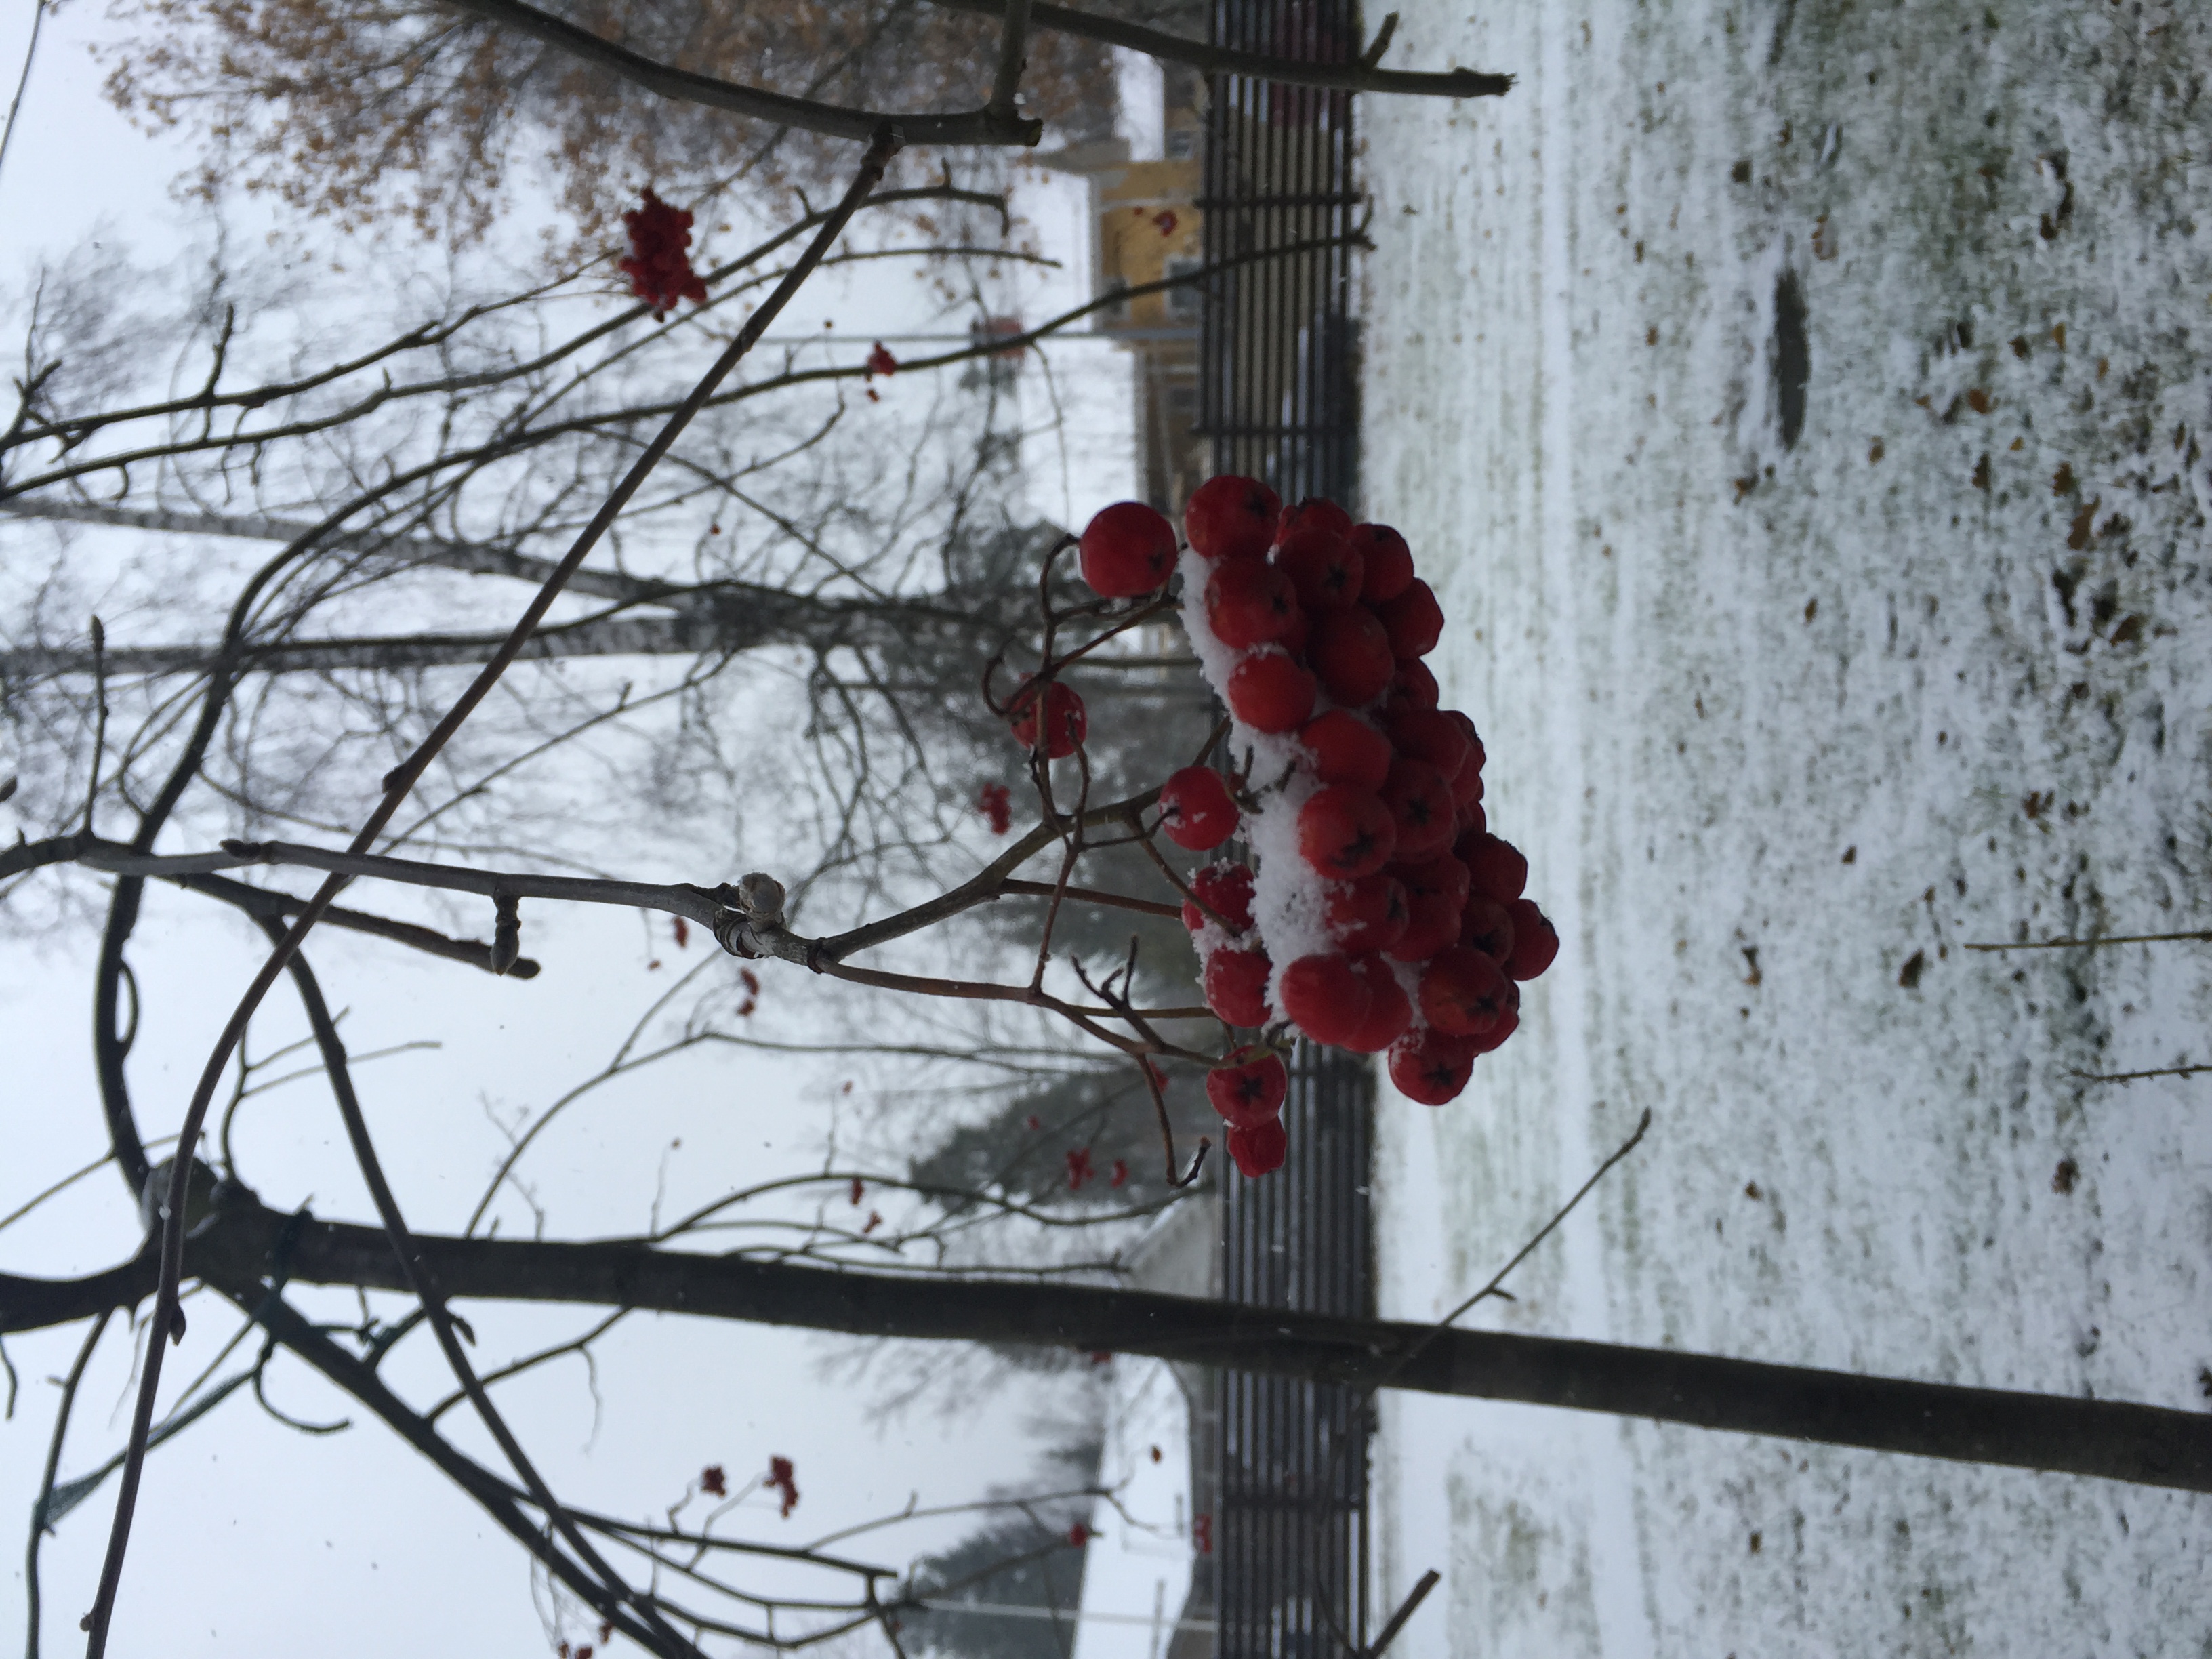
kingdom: Plantae
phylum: Tracheophyta
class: Magnoliopsida
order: Rosales
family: Rosaceae
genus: Sorbus
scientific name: Sorbus aucuparia
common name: Rowan
